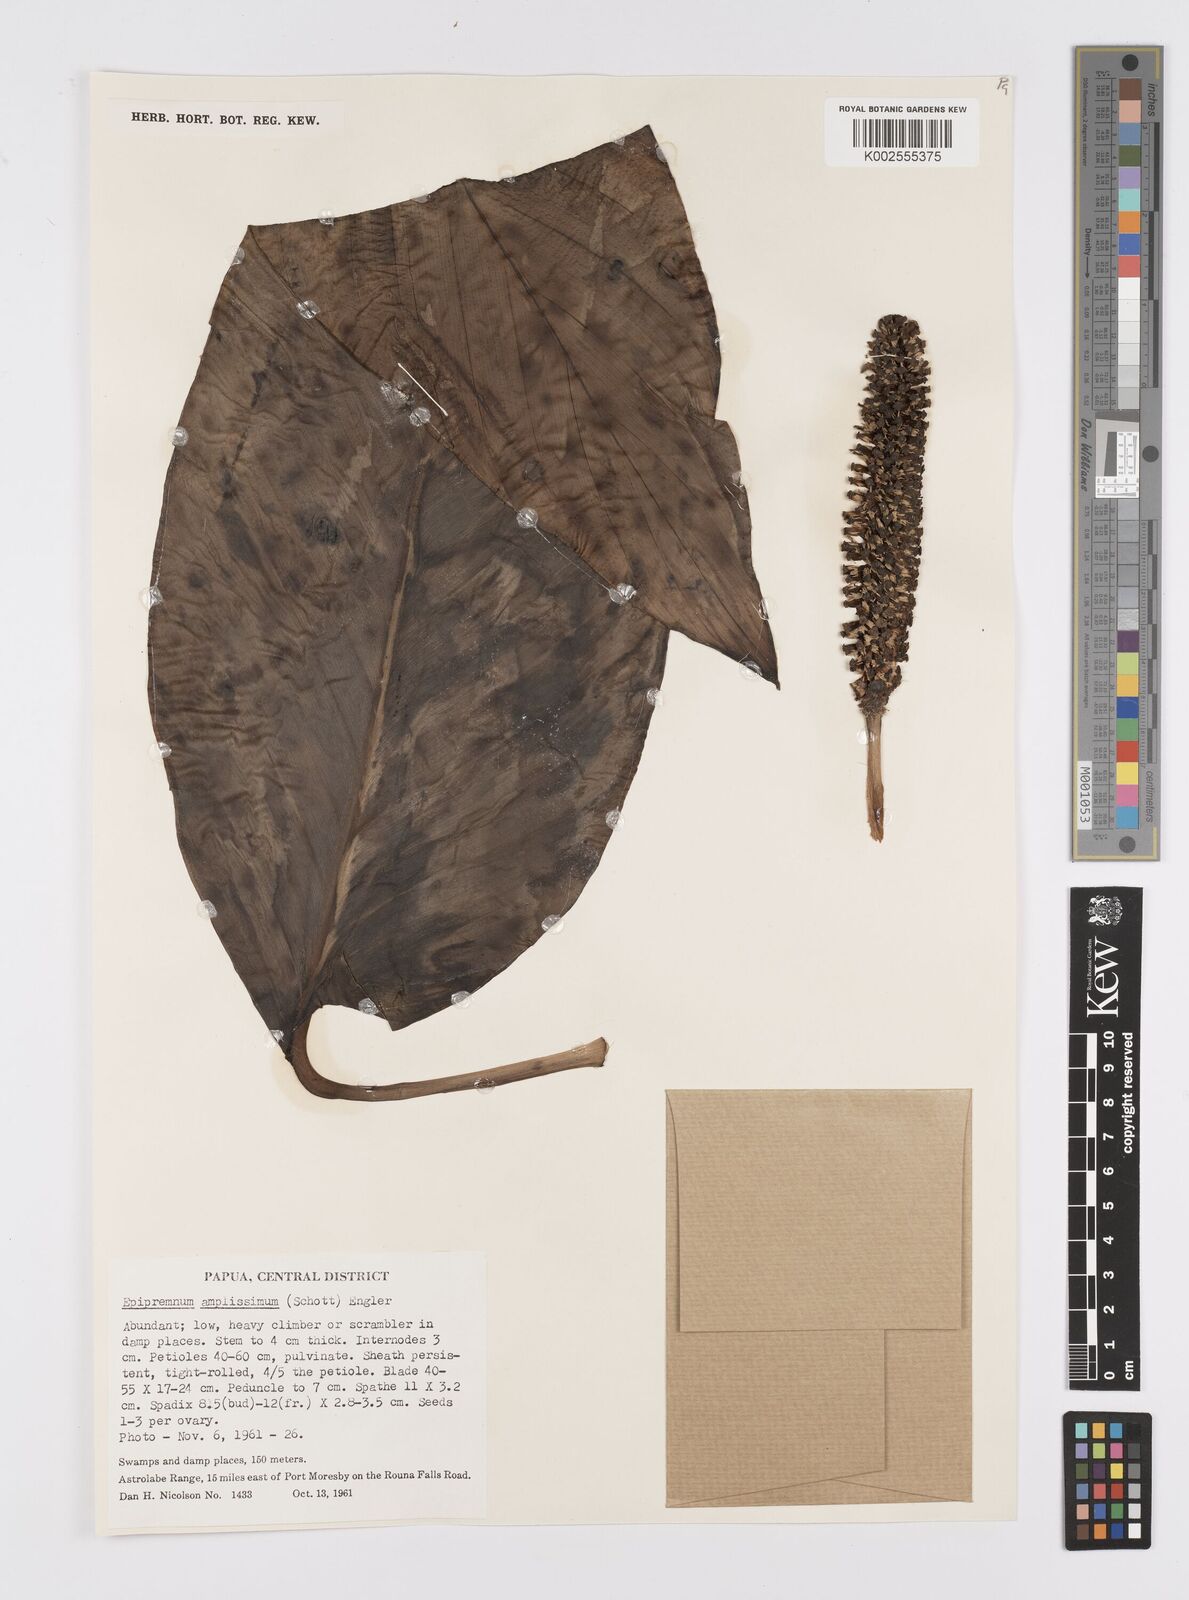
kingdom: Plantae
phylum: Tracheophyta
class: Liliopsida
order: Alismatales
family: Araceae
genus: Epipremnum
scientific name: Epipremnum amplissimum
